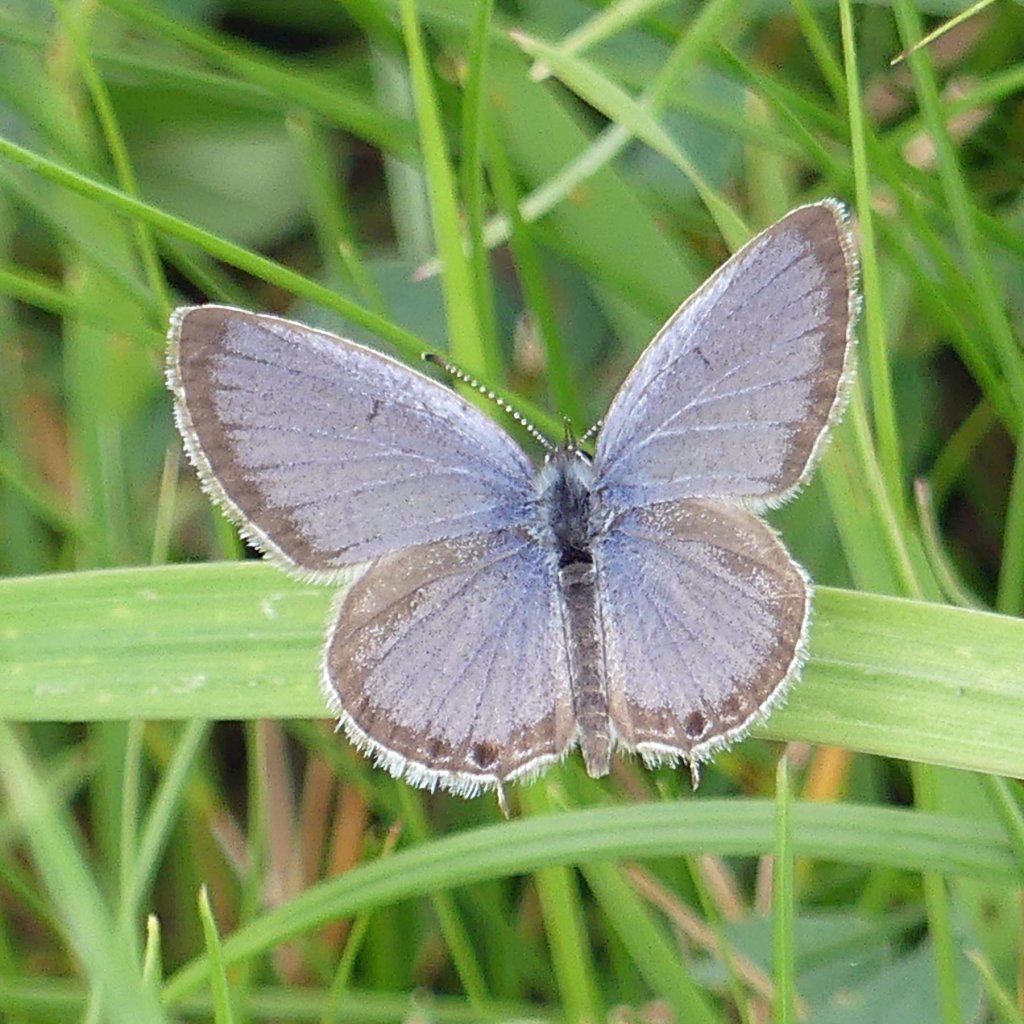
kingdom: Animalia
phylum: Arthropoda
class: Insecta
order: Lepidoptera
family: Lycaenidae
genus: Elkalyce
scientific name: Elkalyce comyntas
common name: Eastern Tailed-Blue
